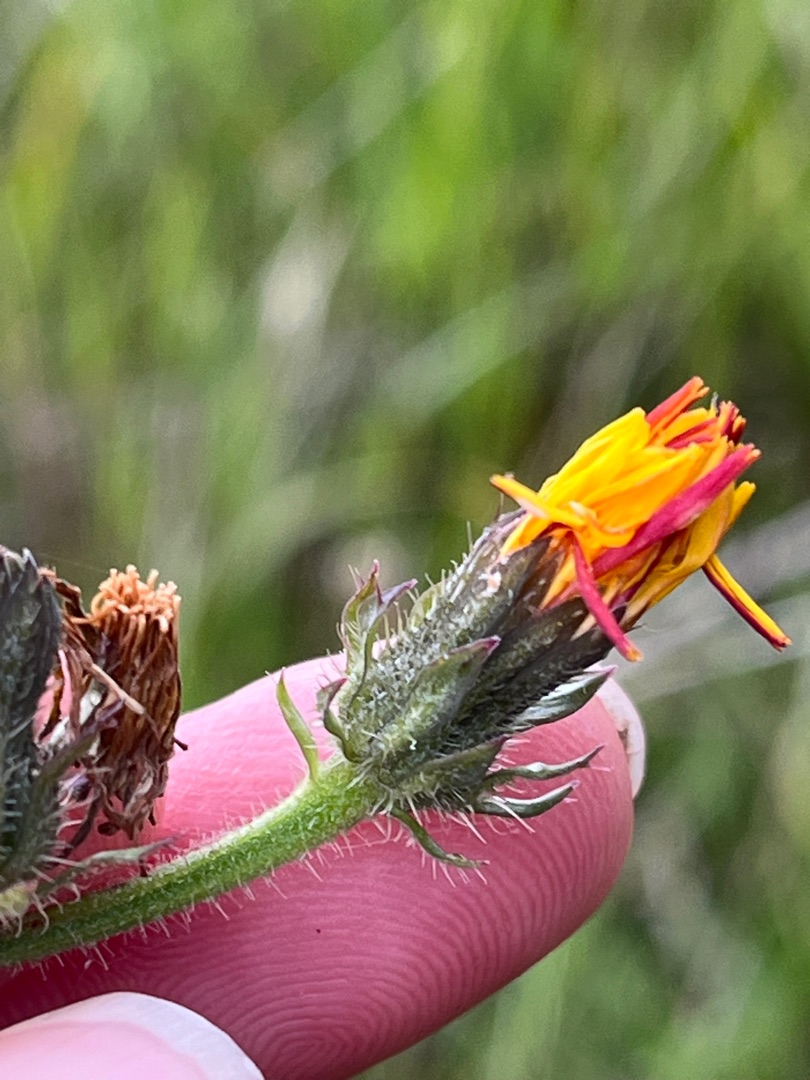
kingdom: Plantae
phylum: Tracheophyta
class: Magnoliopsida
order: Asterales
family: Asteraceae
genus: Picris
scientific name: Picris hieracioides
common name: Ru bittermælk
